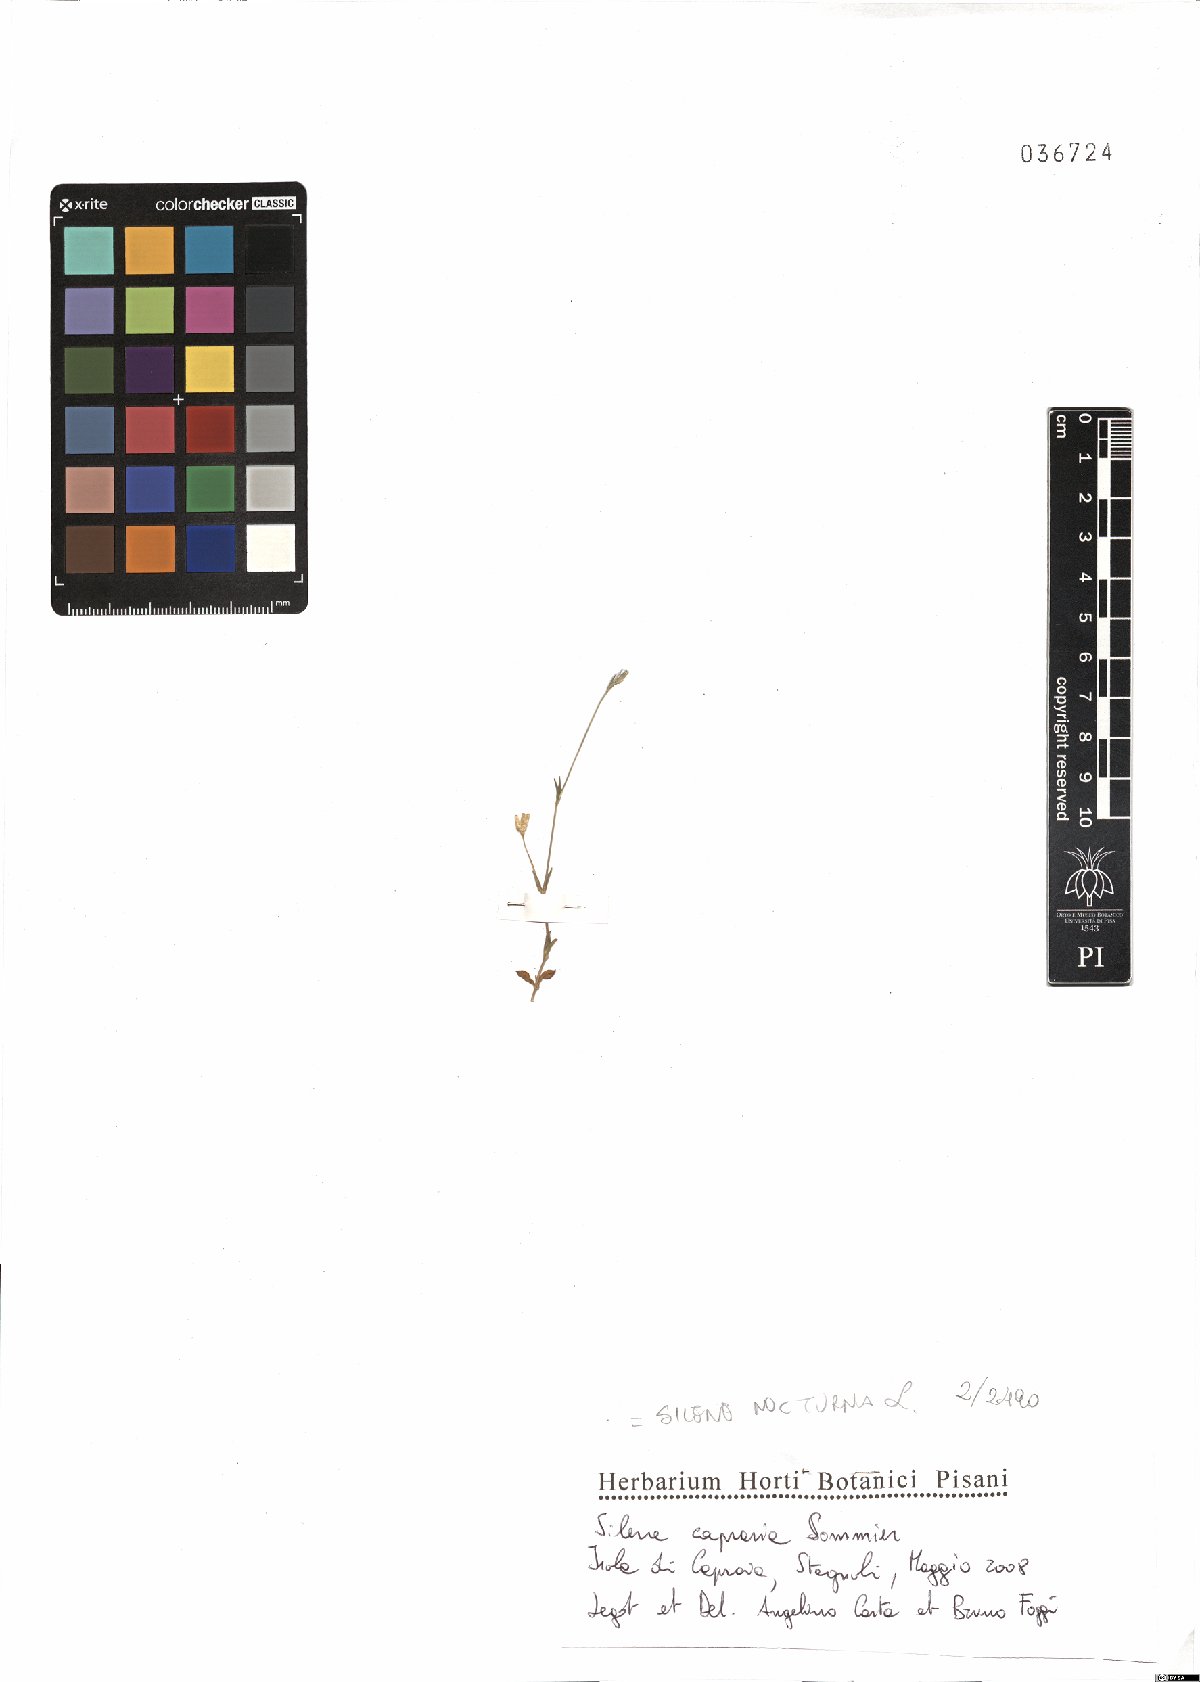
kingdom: Plantae
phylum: Tracheophyta
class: Magnoliopsida
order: Caryophyllales
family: Caryophyllaceae
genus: Silene
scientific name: Silene nocturna
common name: Mediterranean catchfly
